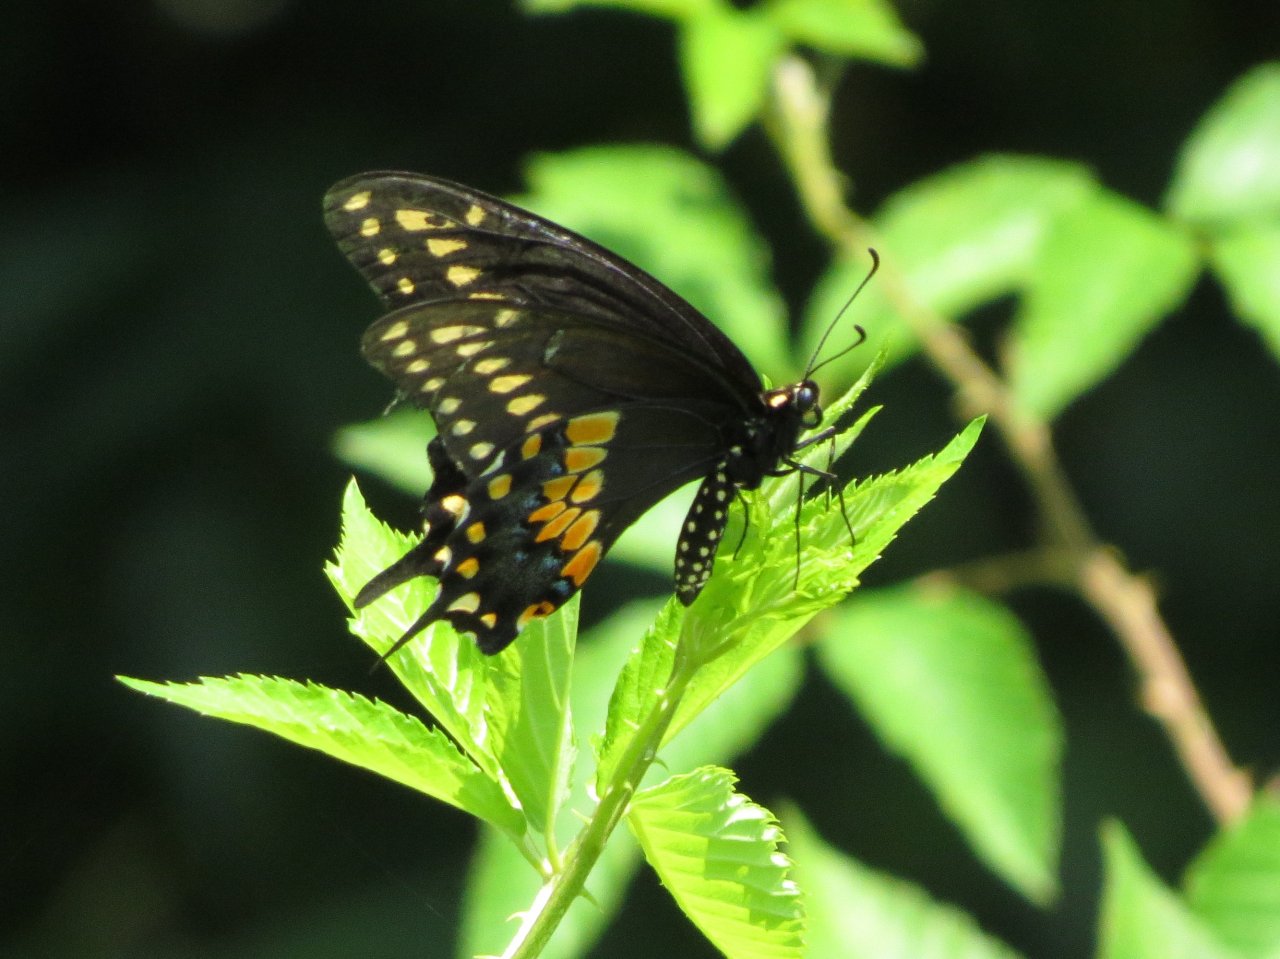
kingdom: Animalia
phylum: Arthropoda
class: Insecta
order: Lepidoptera
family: Papilionidae
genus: Papilio
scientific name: Papilio polyxenes
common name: Black Swallowtail
